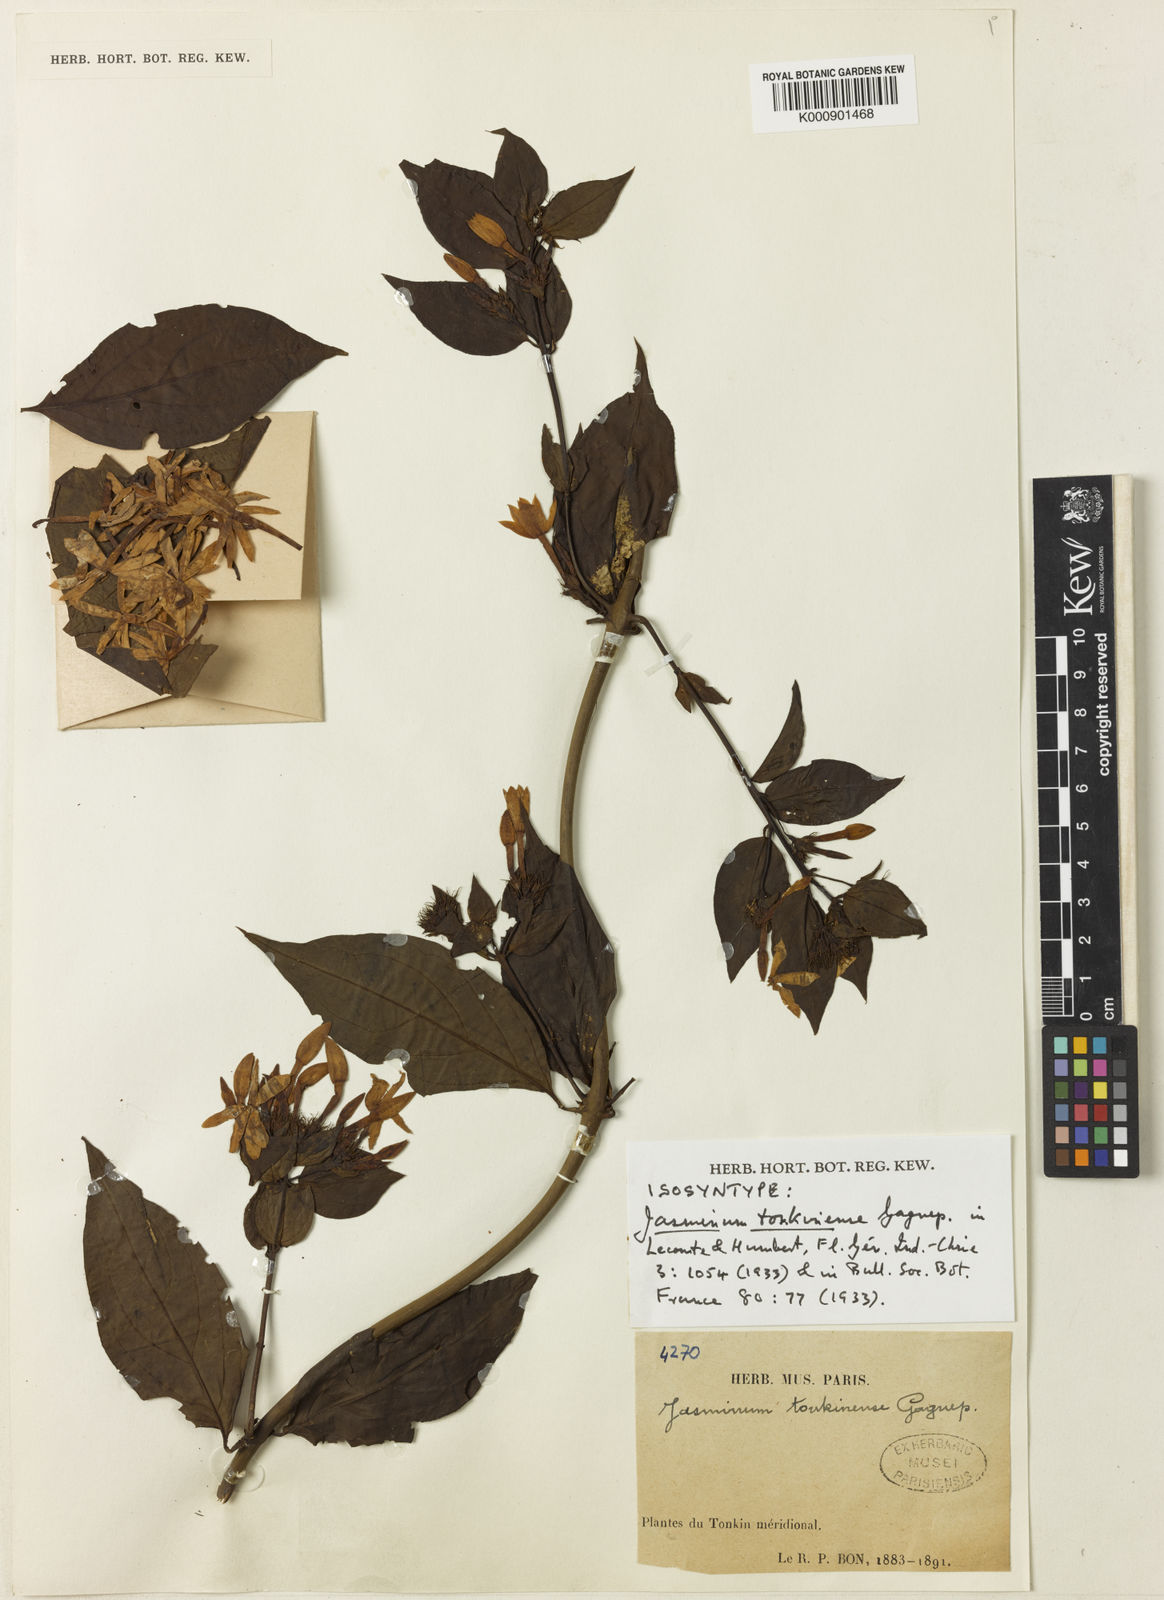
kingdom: Plantae
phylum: Tracheophyta
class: Magnoliopsida
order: Lamiales
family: Oleaceae
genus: Jasminum
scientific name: Jasminum
